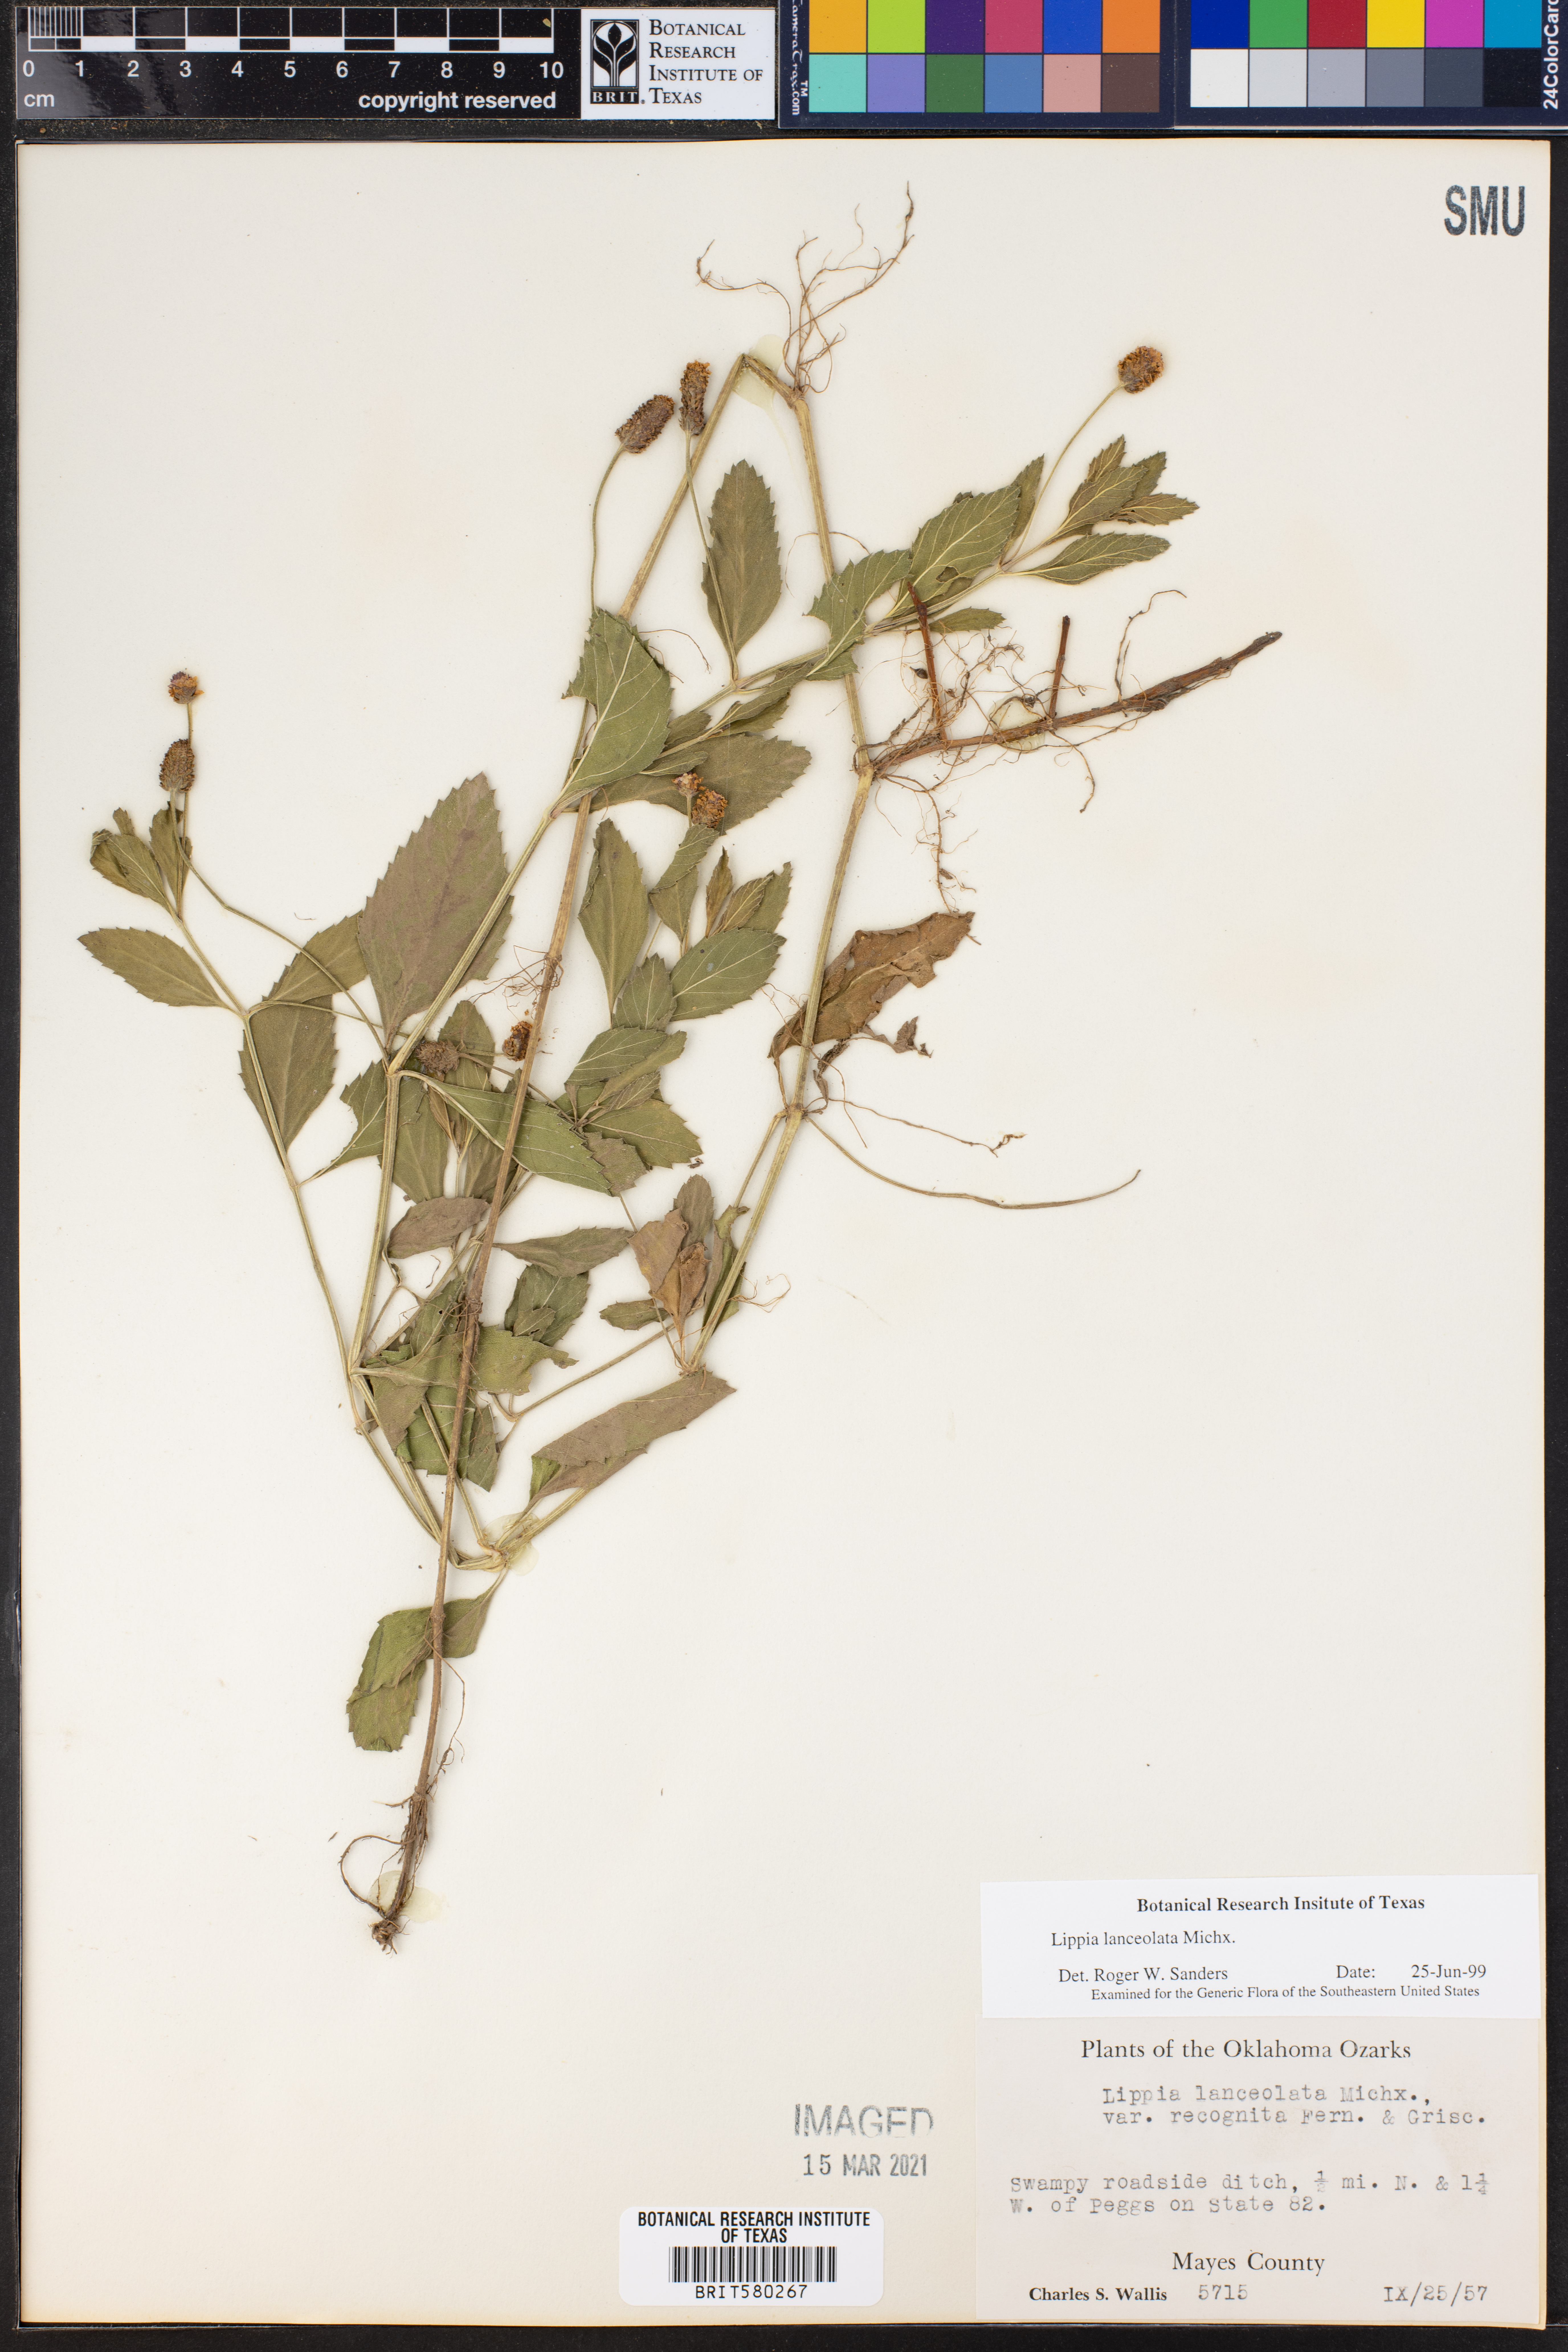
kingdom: Plantae
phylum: Tracheophyta
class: Magnoliopsida
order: Lamiales
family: Verbenaceae
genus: Phyla
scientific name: Phyla lanceolata
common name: Northern fogfruit
